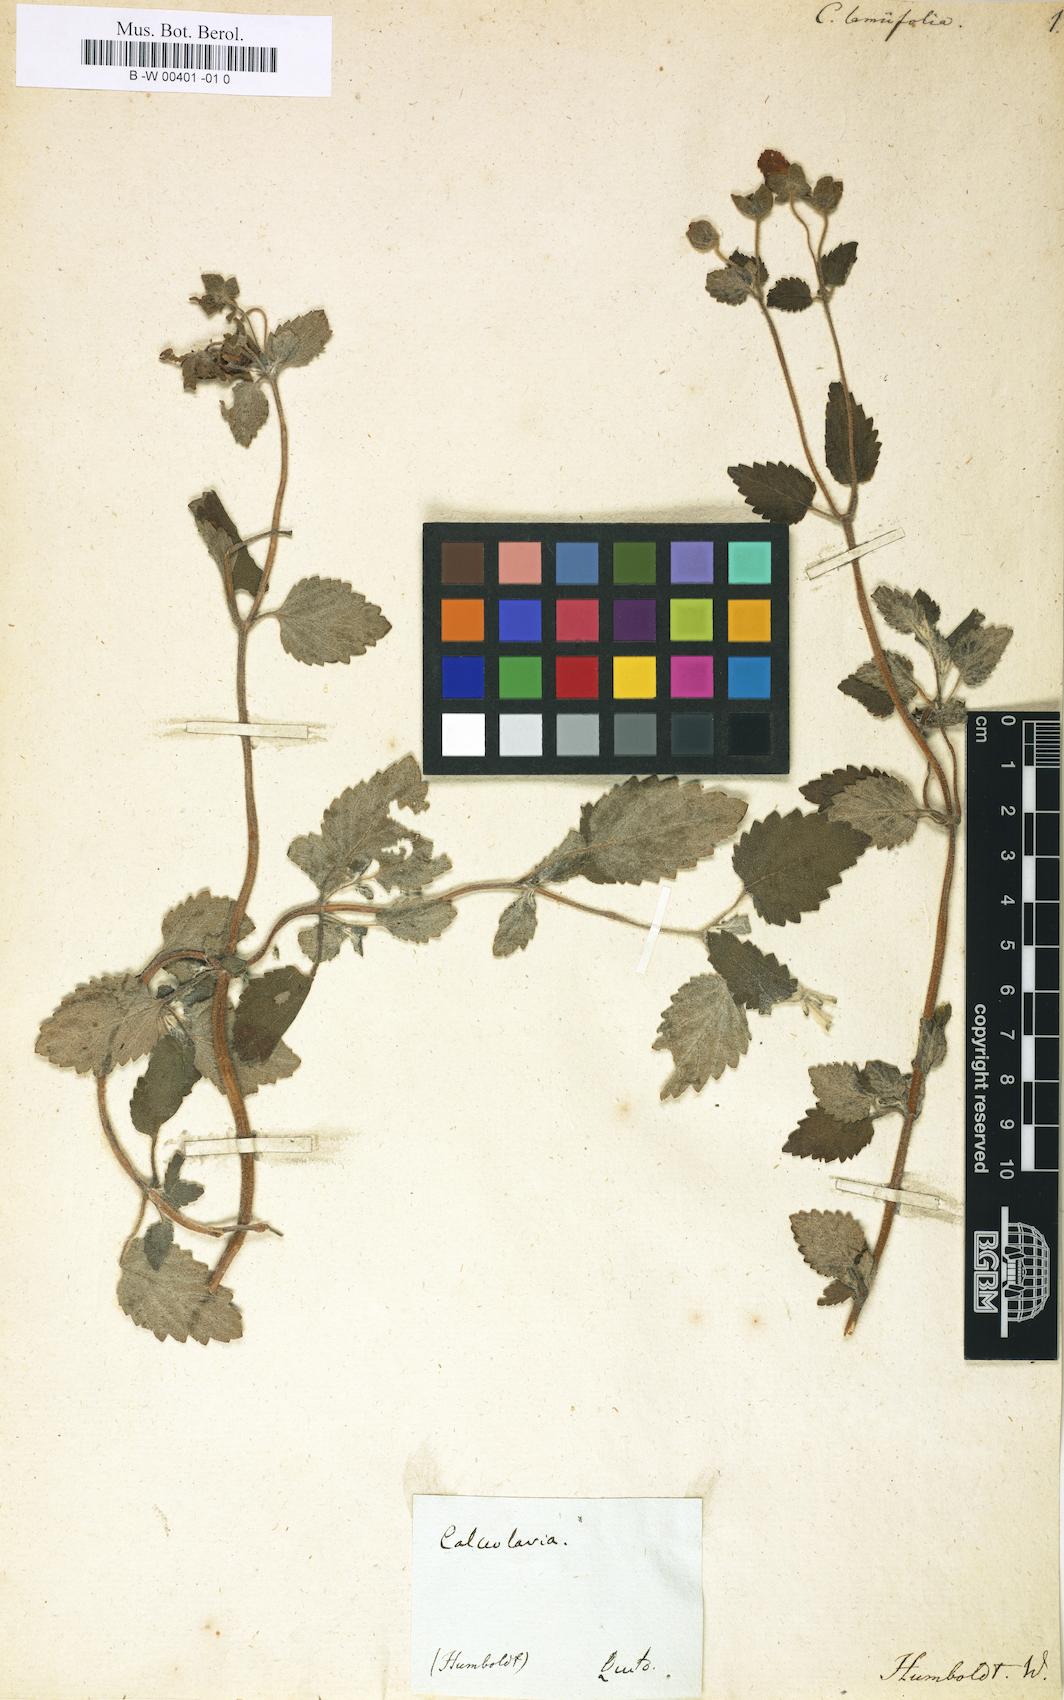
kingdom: Plantae
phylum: Tracheophyta
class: Magnoliopsida
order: Lamiales
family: Calceolariaceae
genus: Calceolaria
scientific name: Calceolaria lamiifolia
